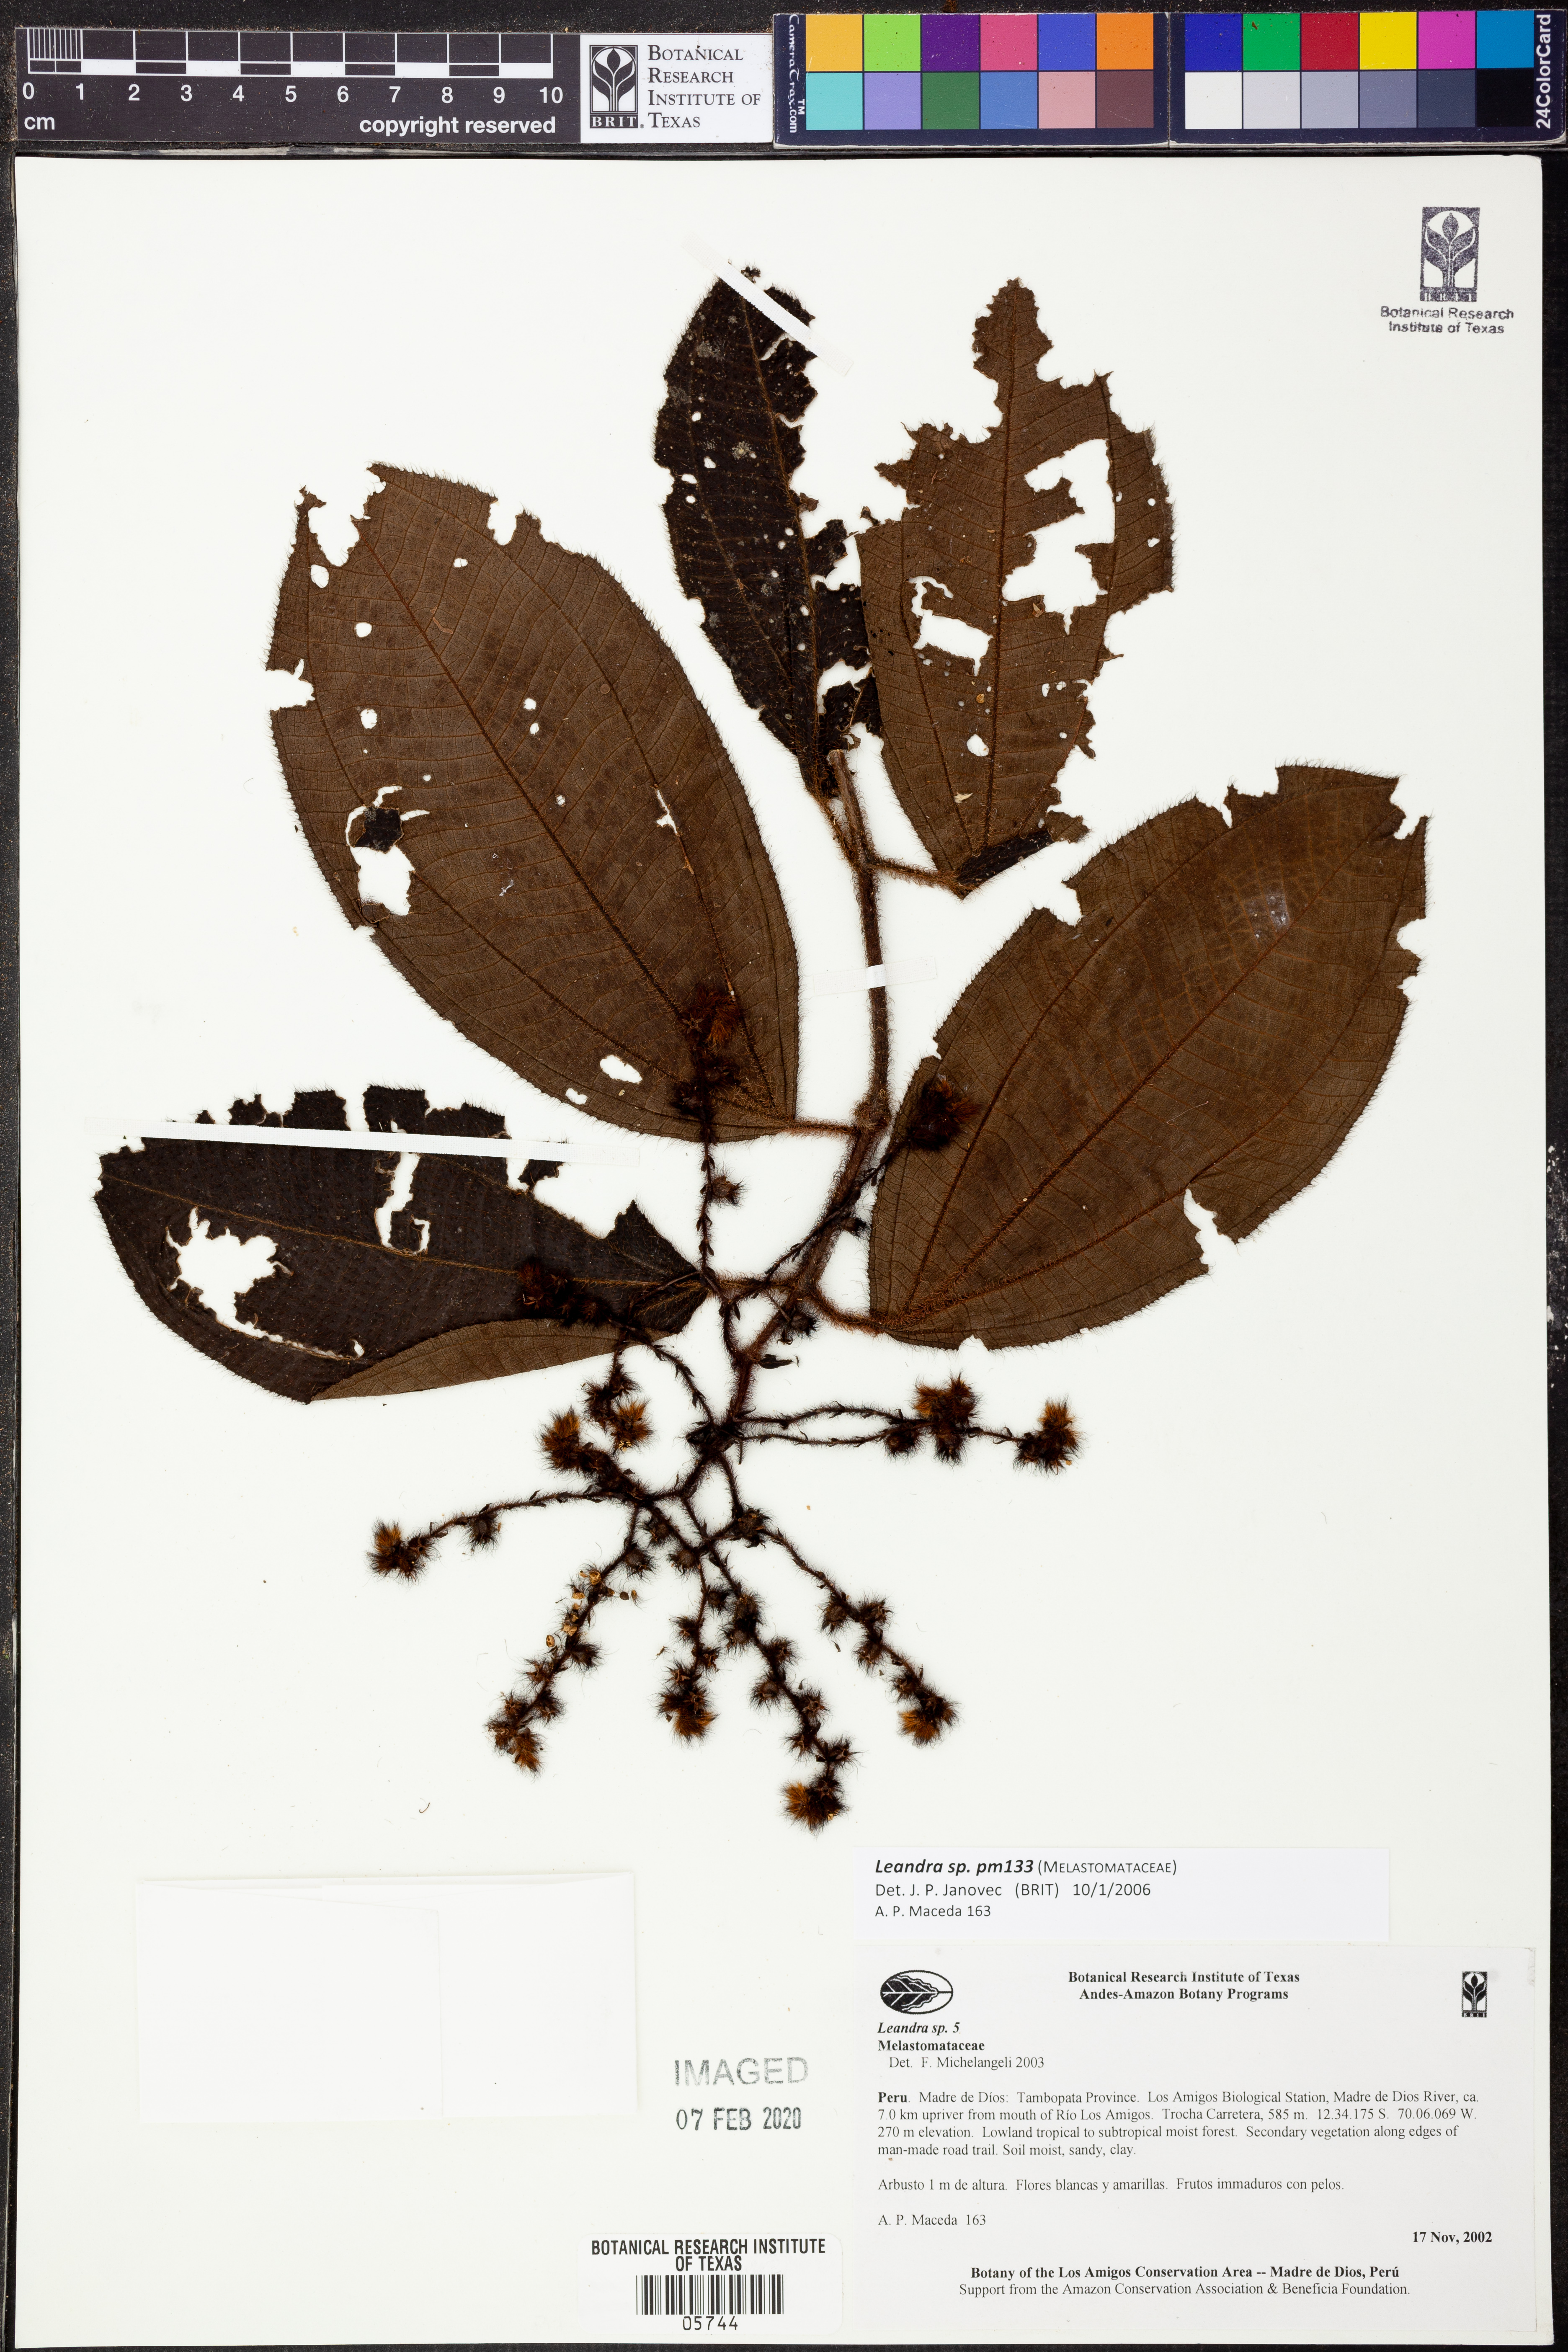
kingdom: Plantae
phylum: Tracheophyta
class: Magnoliopsida
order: Myrtales
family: Melastomataceae
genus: Miconia
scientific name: Miconia
